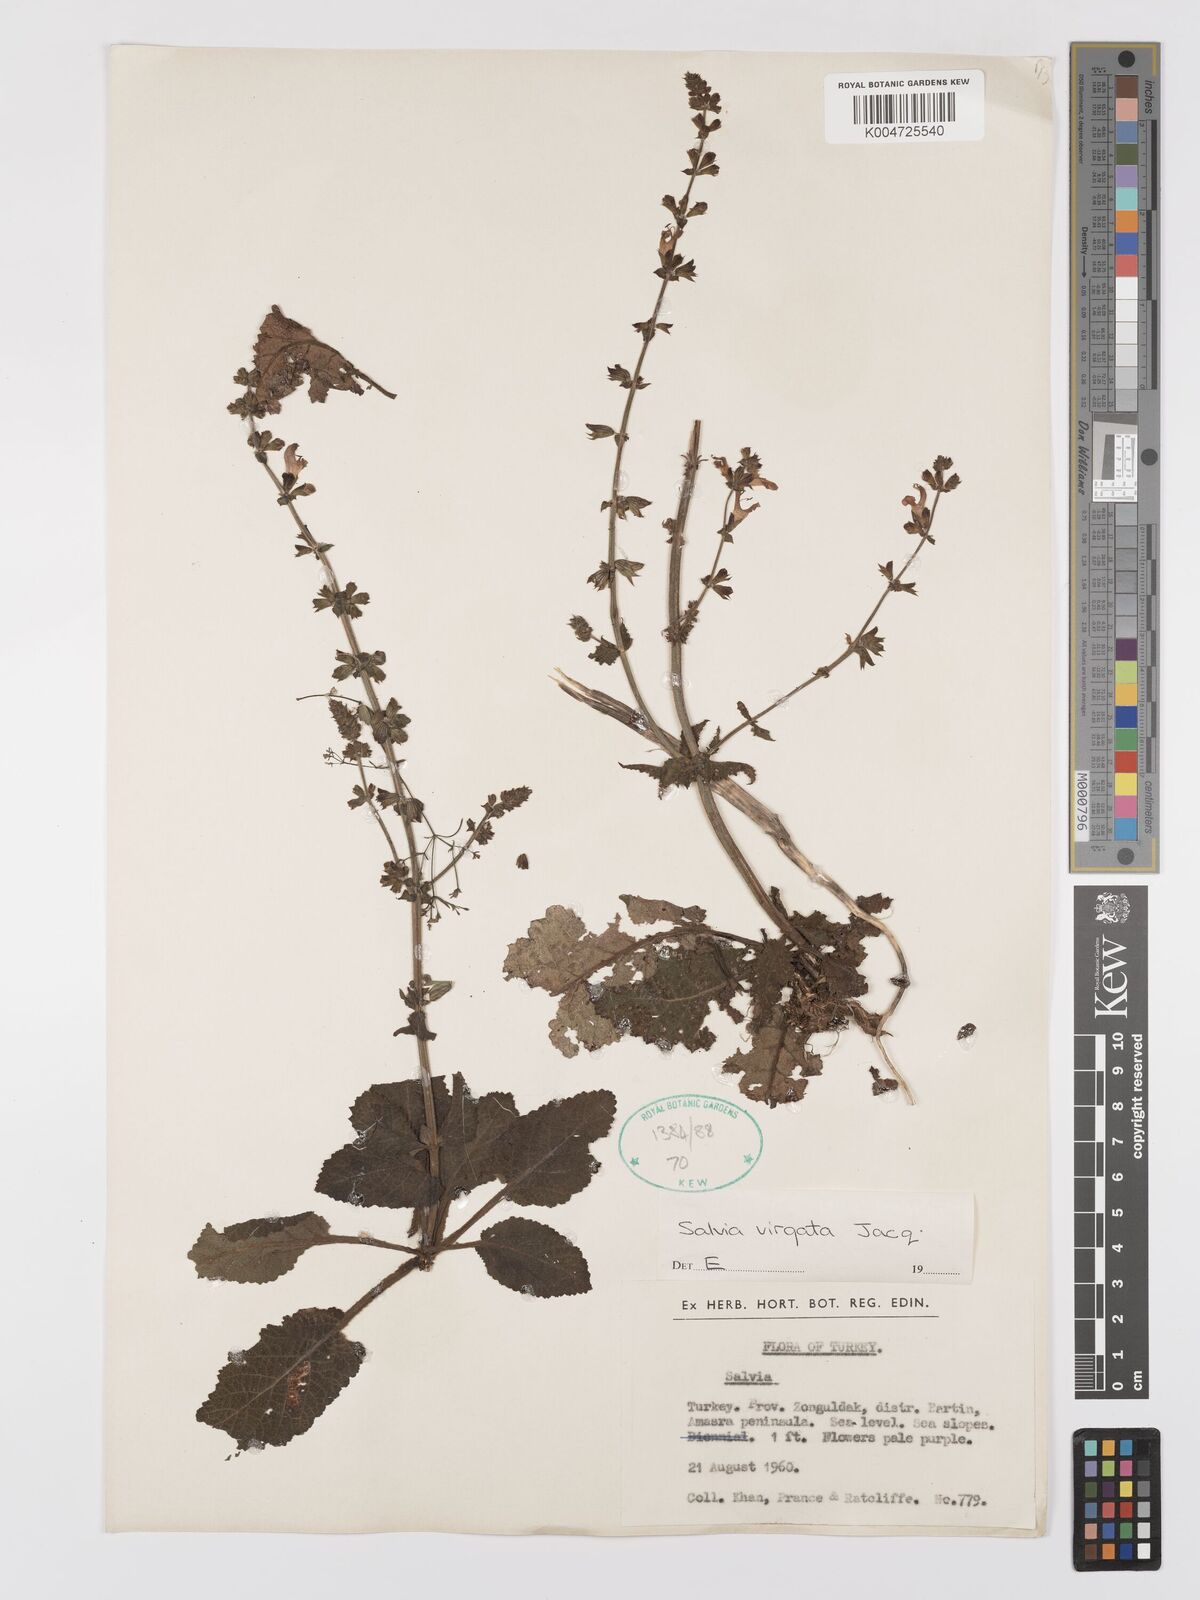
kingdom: Plantae
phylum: Tracheophyta
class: Magnoliopsida
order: Lamiales
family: Lamiaceae
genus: Salvia
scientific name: Salvia
